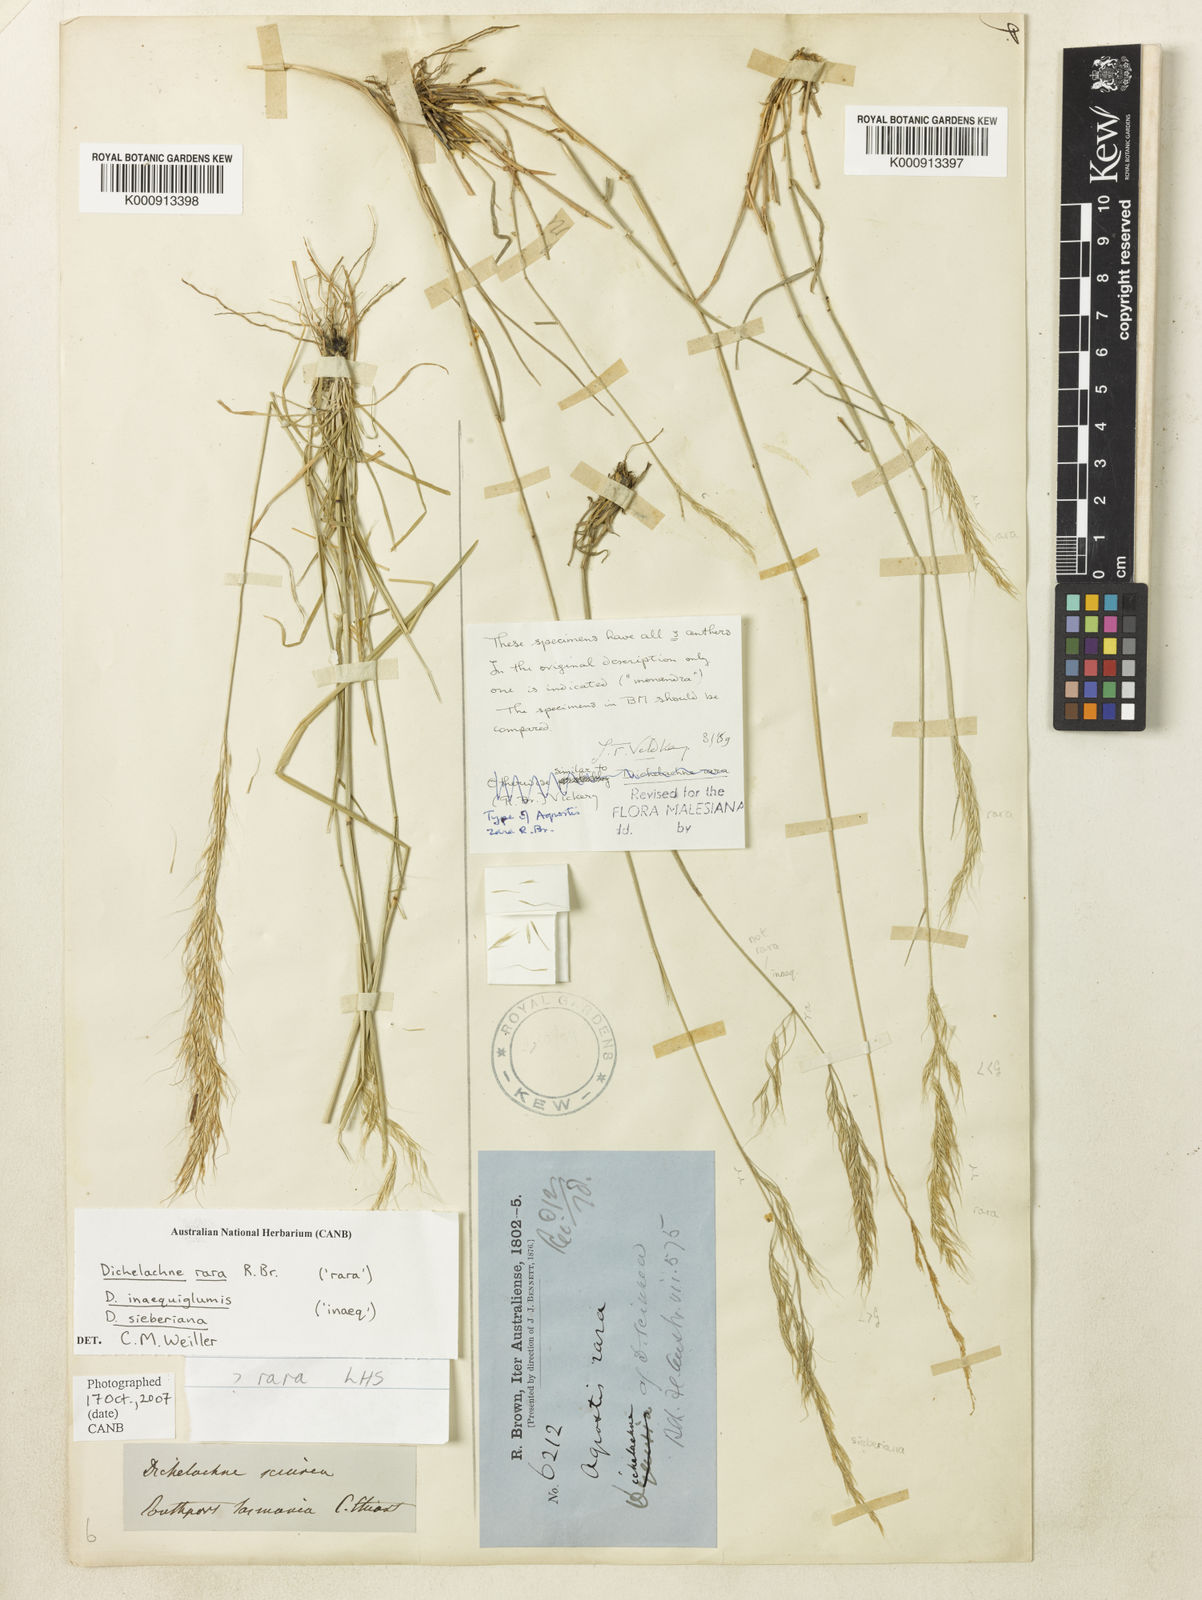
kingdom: Plantae
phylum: Tracheophyta
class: Liliopsida
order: Poales
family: Poaceae
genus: Dichelachne
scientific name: Dichelachne rara
